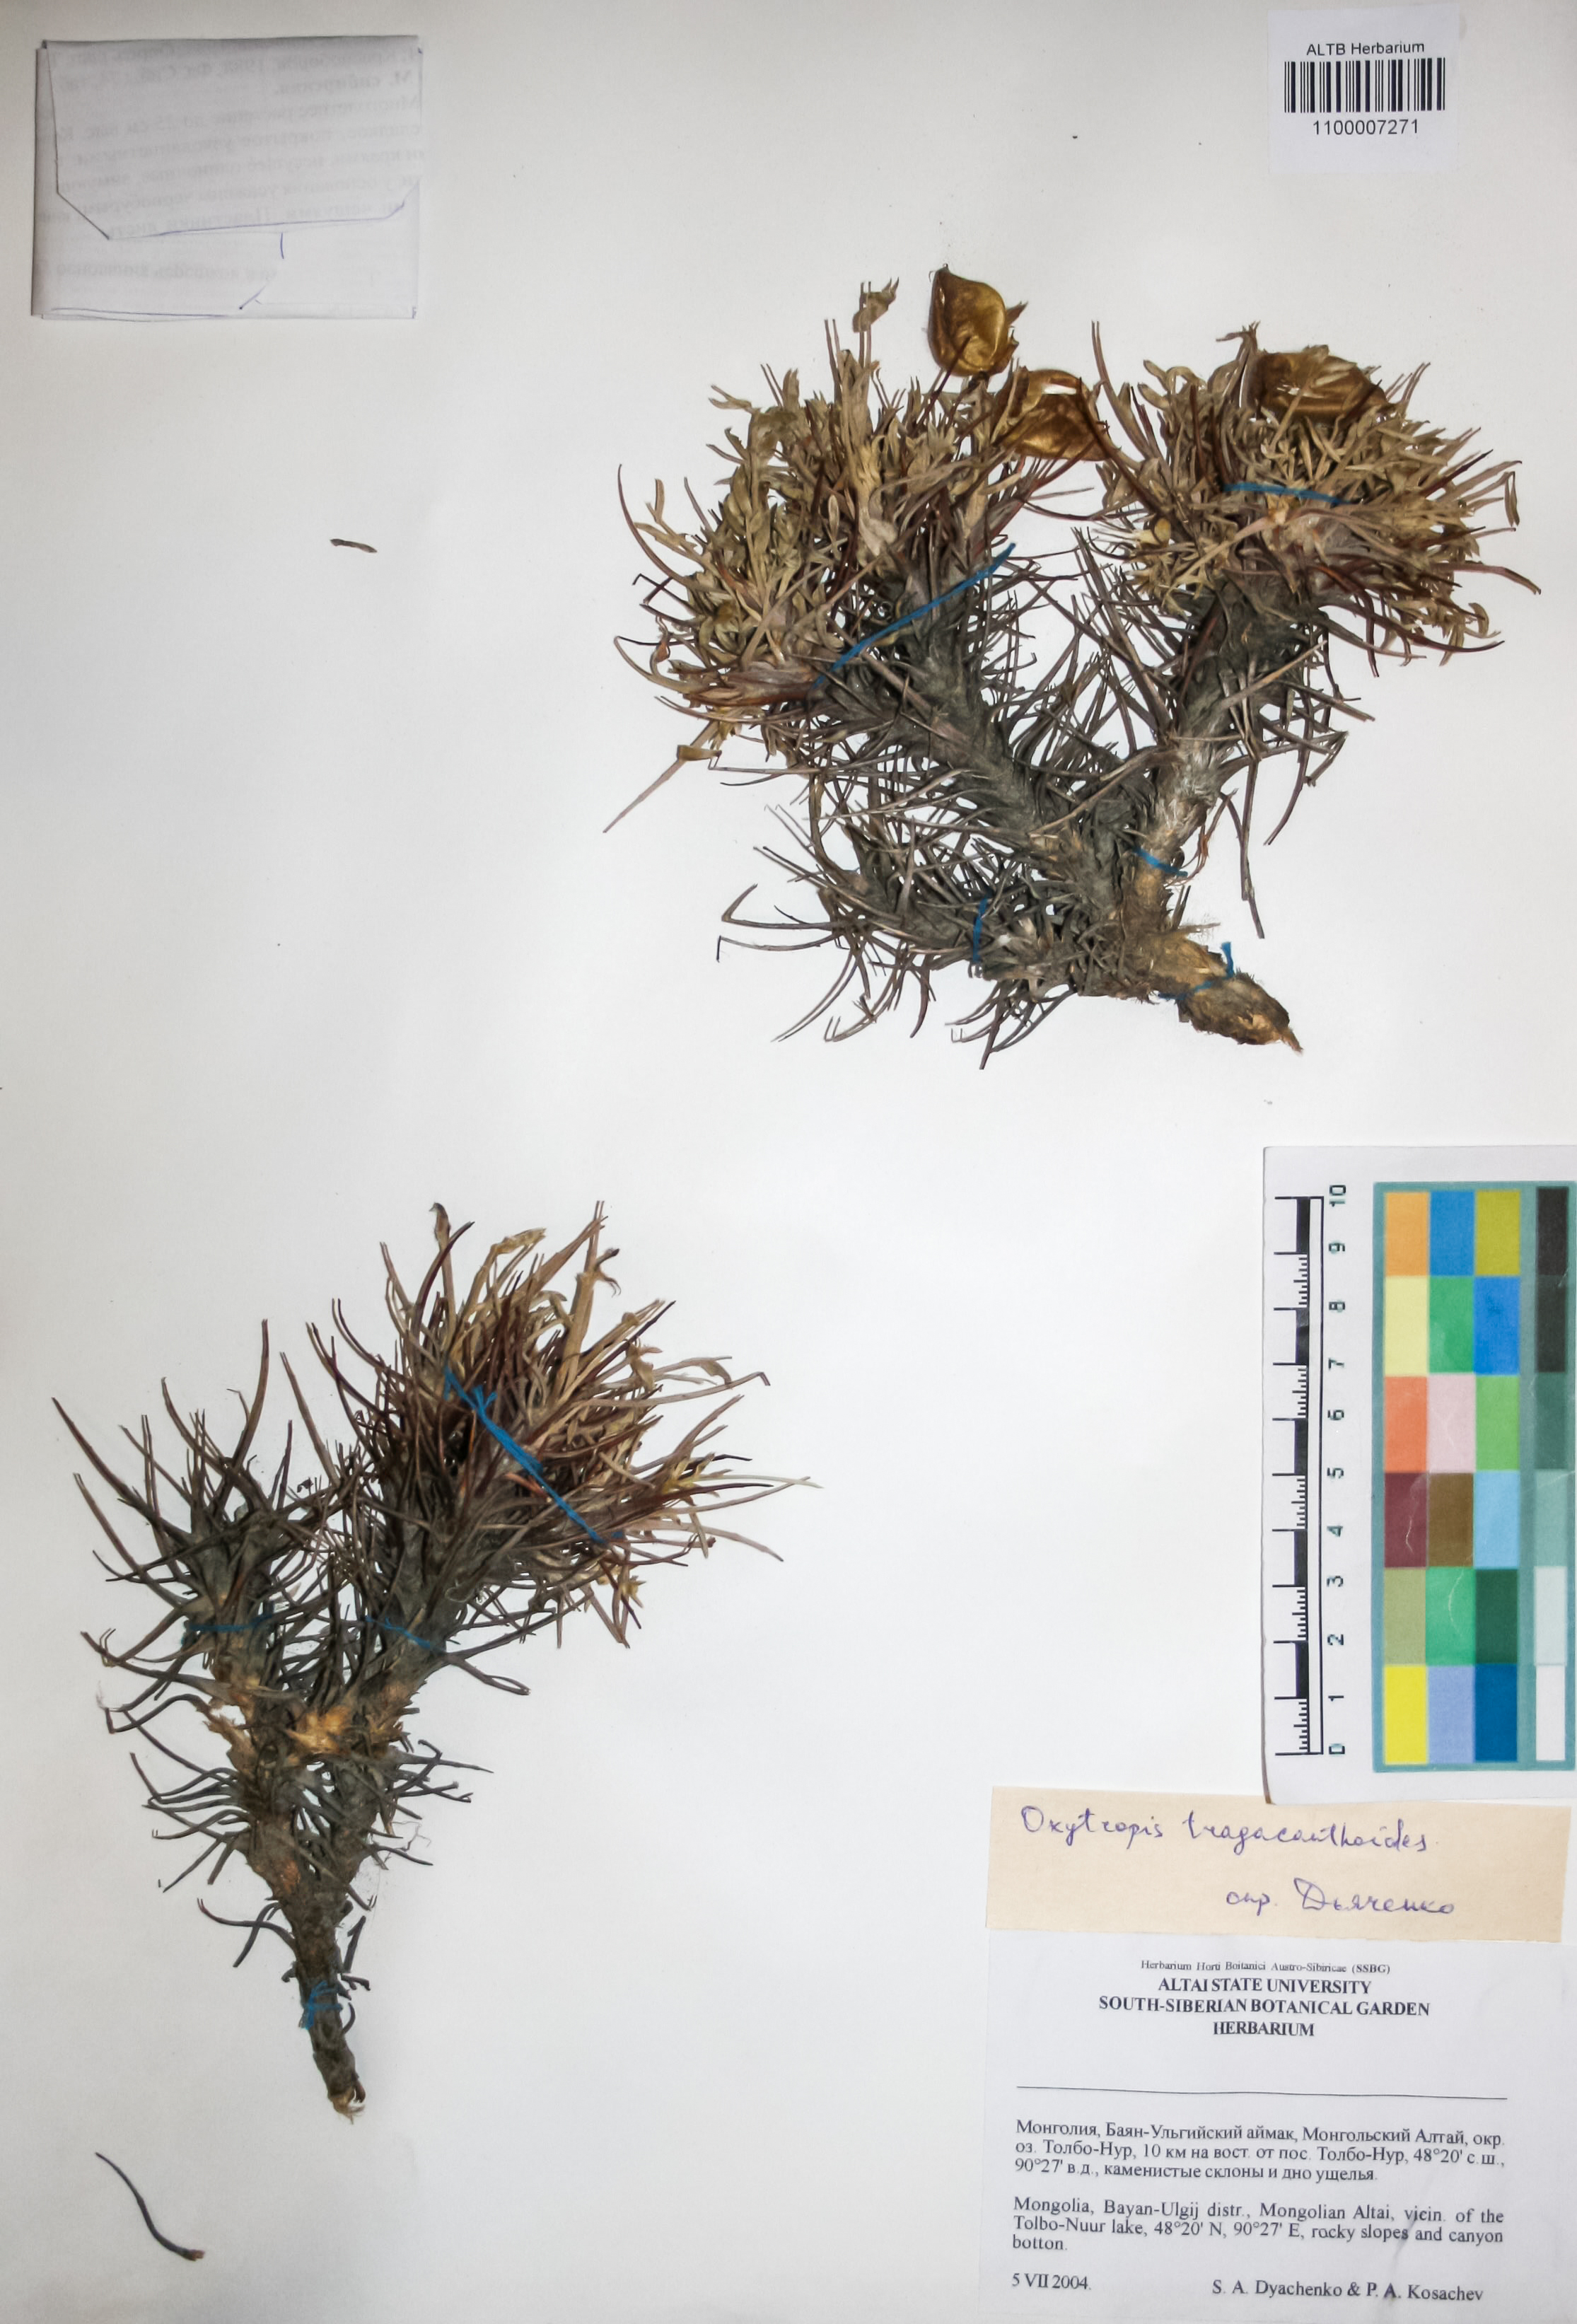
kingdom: Plantae
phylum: Tracheophyta
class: Magnoliopsida
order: Fabales
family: Fabaceae
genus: Oxytropis
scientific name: Oxytropis tragacanthoides
